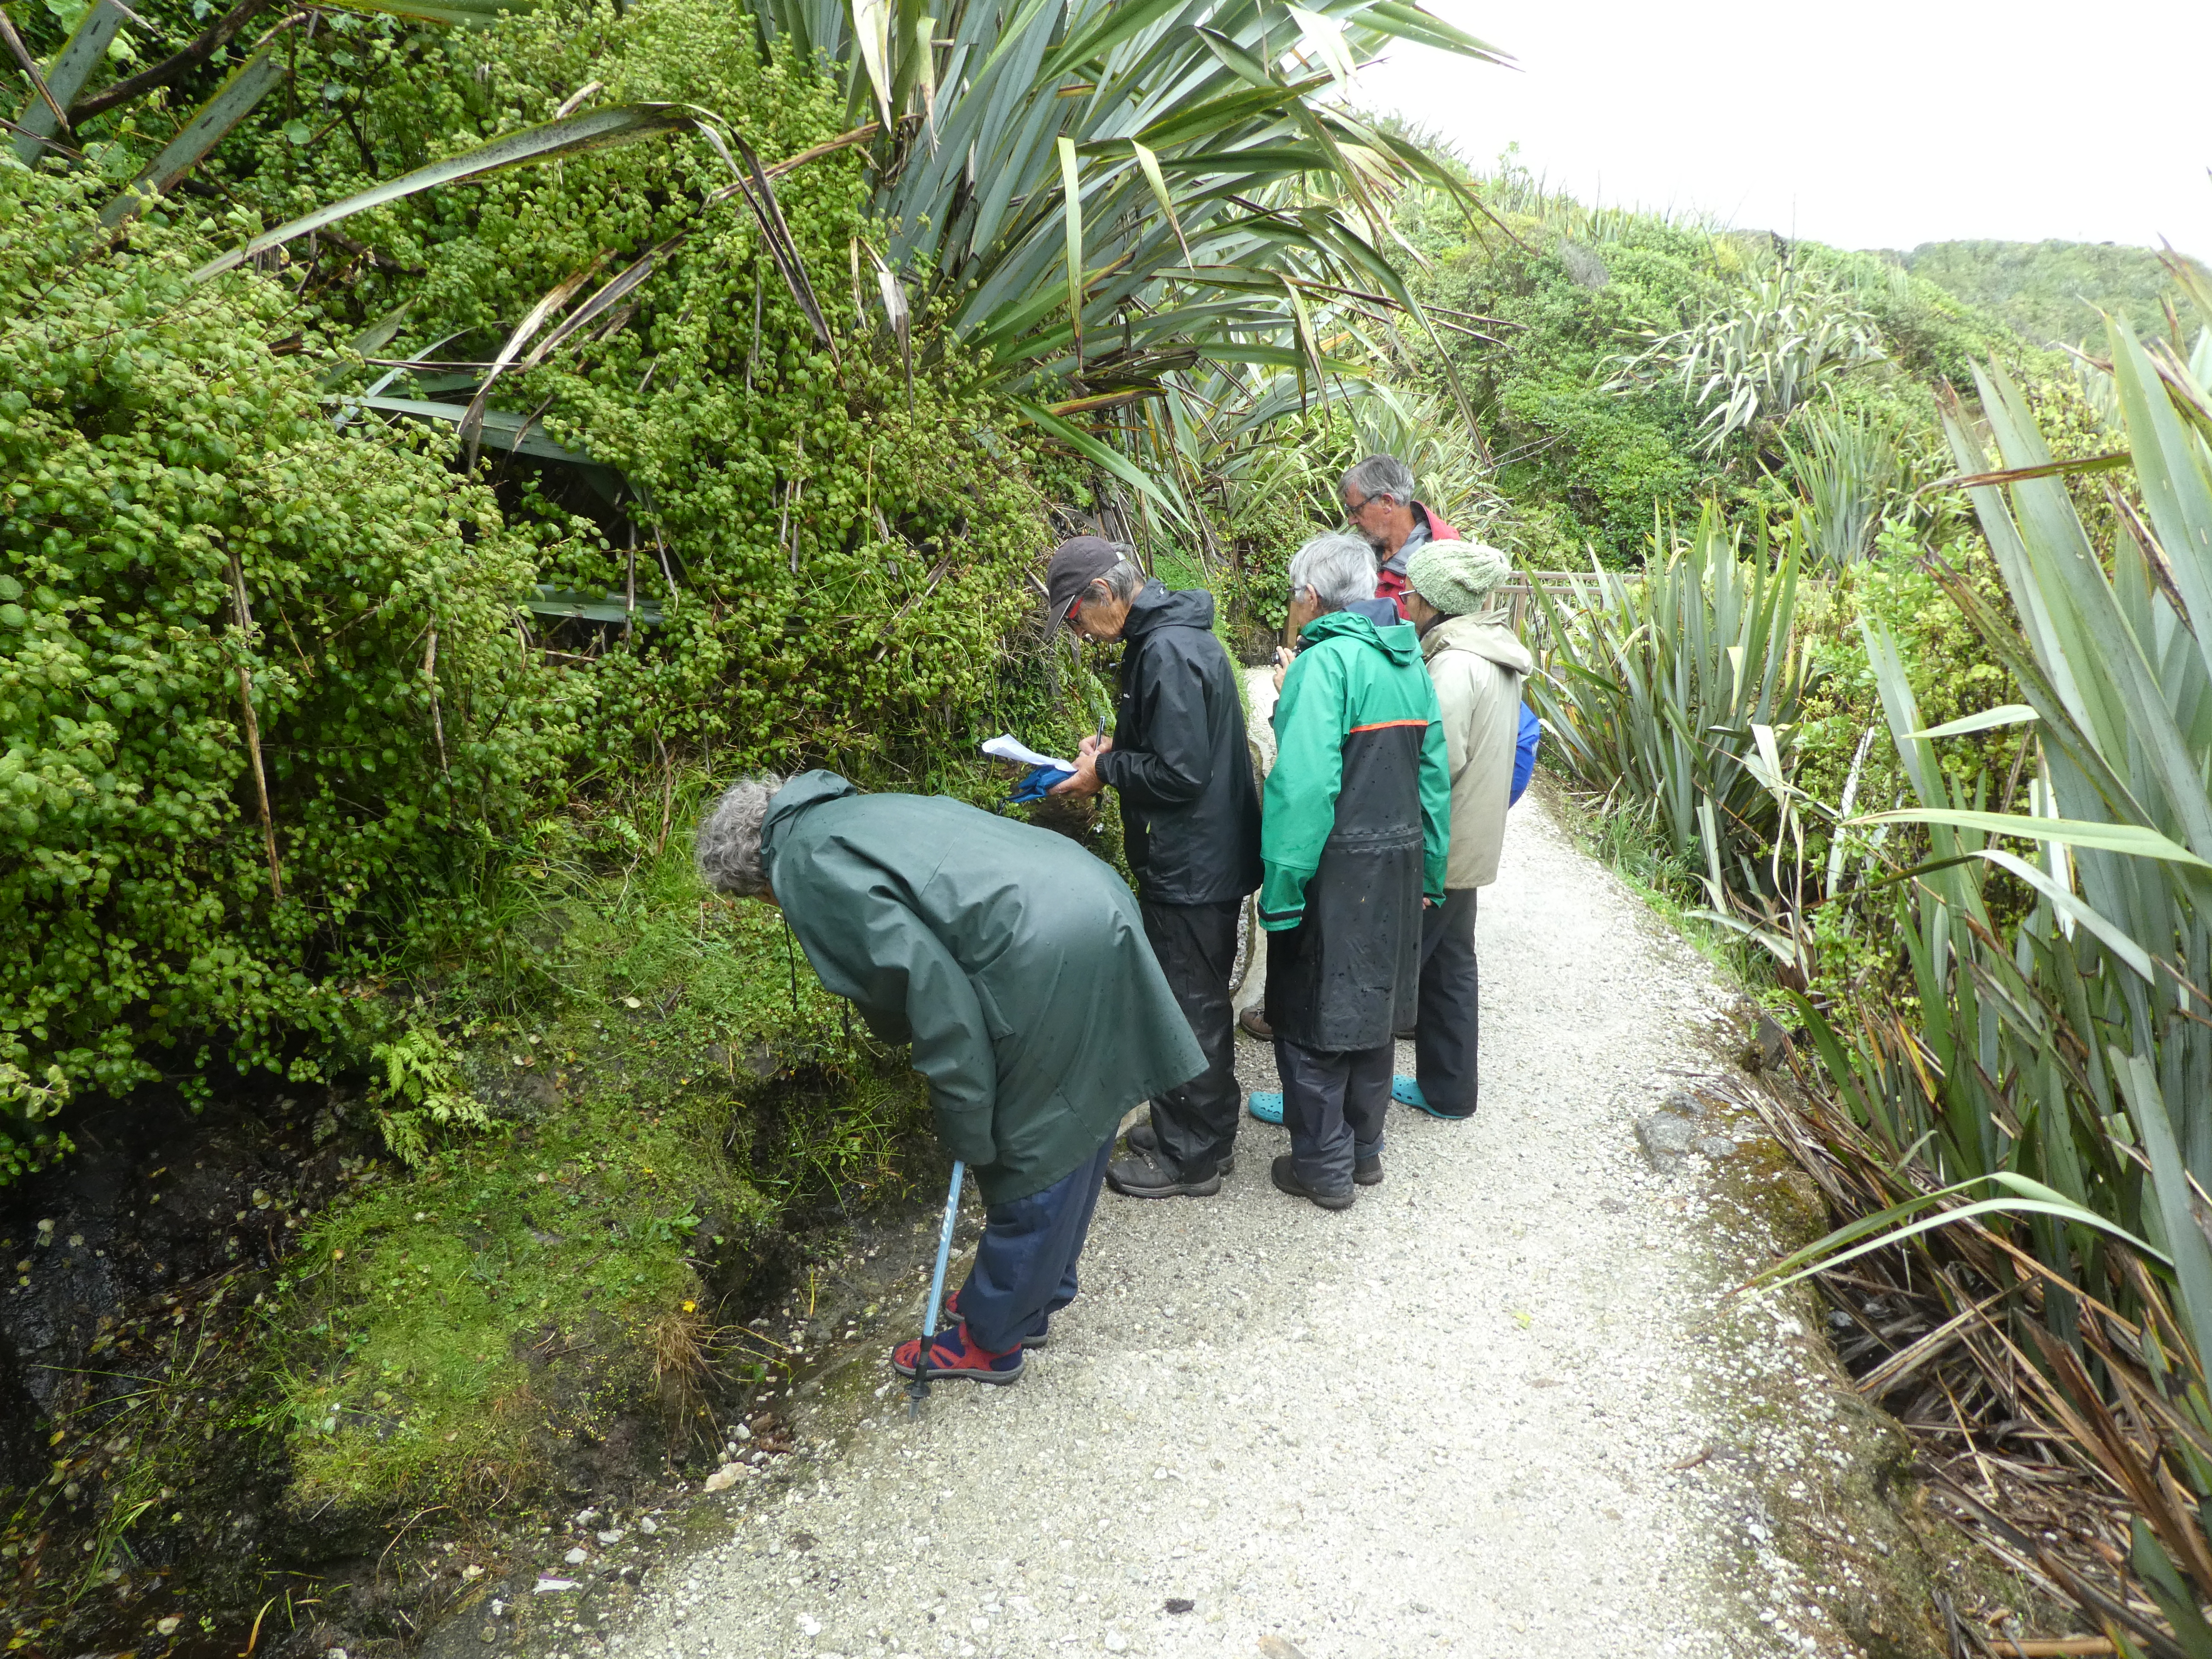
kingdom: Plantae
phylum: Tracheophyta
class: Magnoliopsida
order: Asterales
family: Asteraceae
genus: Leptinella
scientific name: Leptinella squalida
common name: New zealand brass-buttons
